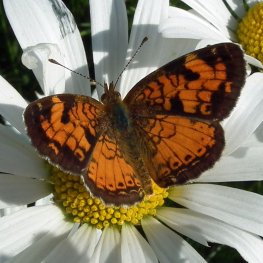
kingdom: Animalia
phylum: Arthropoda
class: Insecta
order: Lepidoptera
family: Nymphalidae
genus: Phyciodes
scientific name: Phyciodes tharos
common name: Northern Crescent
